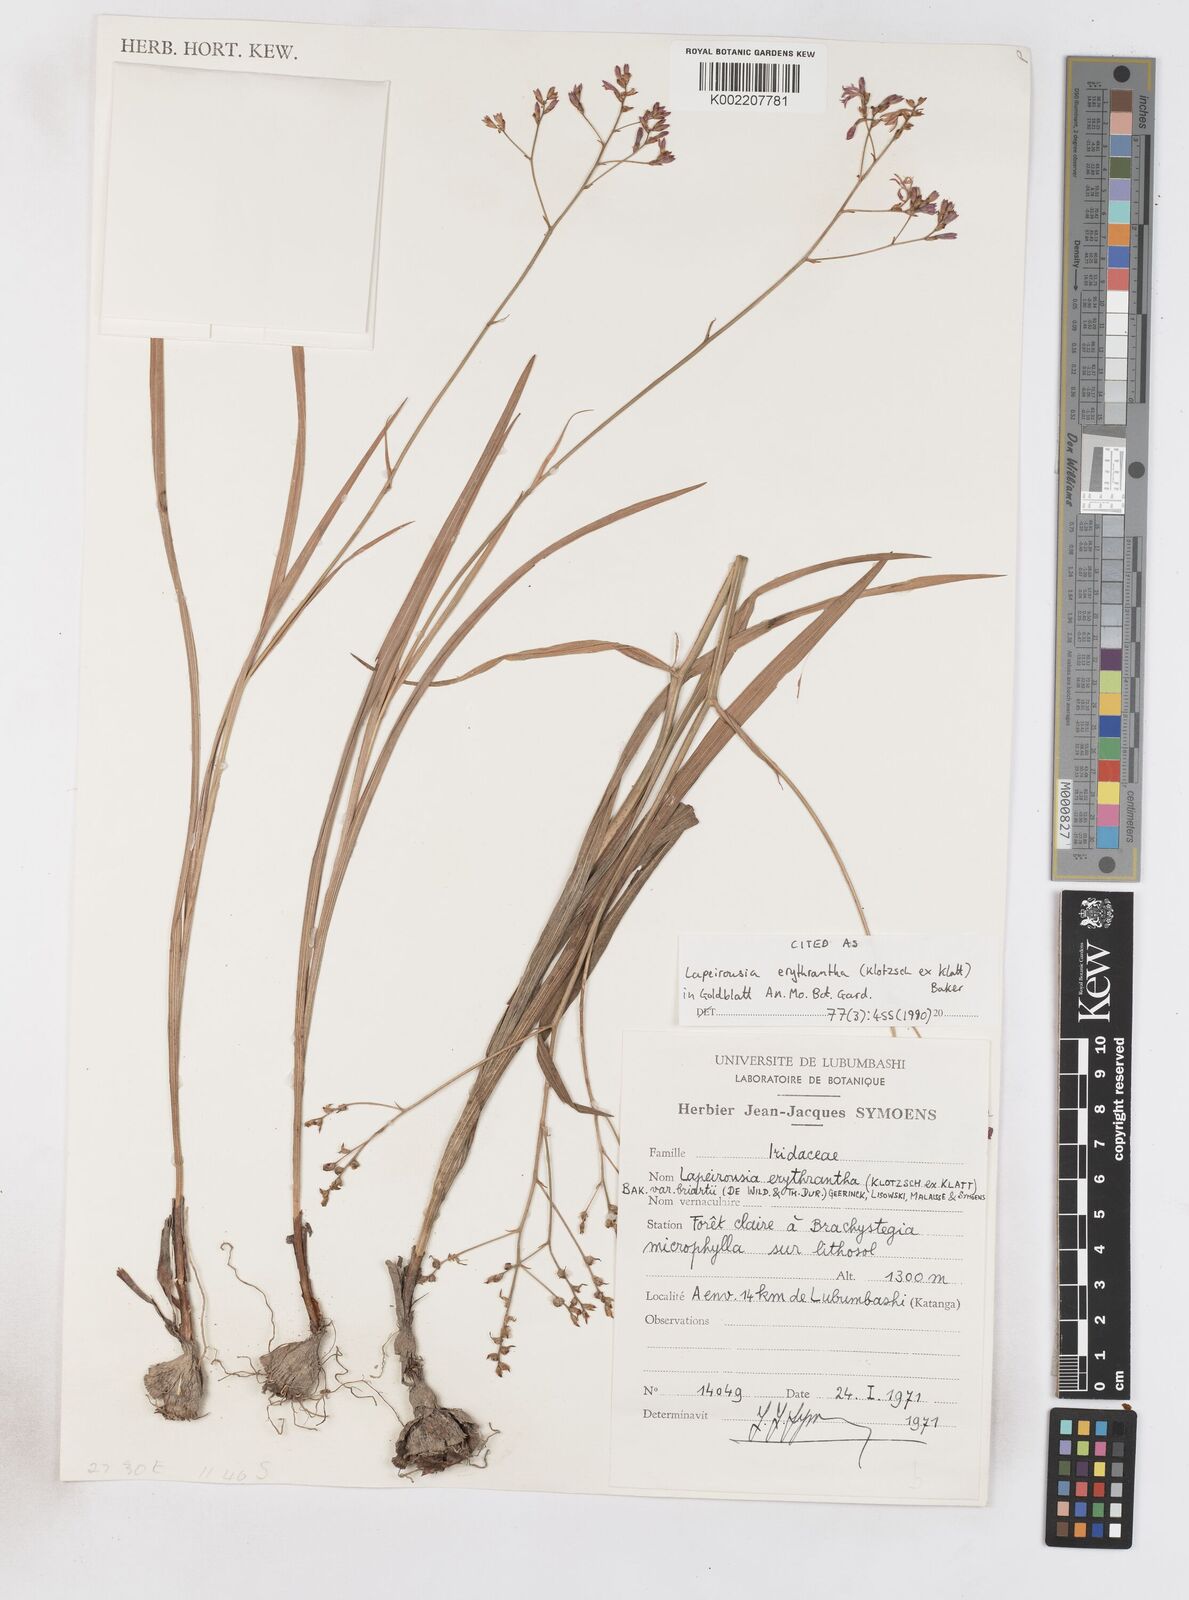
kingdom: Plantae
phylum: Tracheophyta
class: Liliopsida
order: Asparagales
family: Iridaceae
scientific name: Iridaceae
